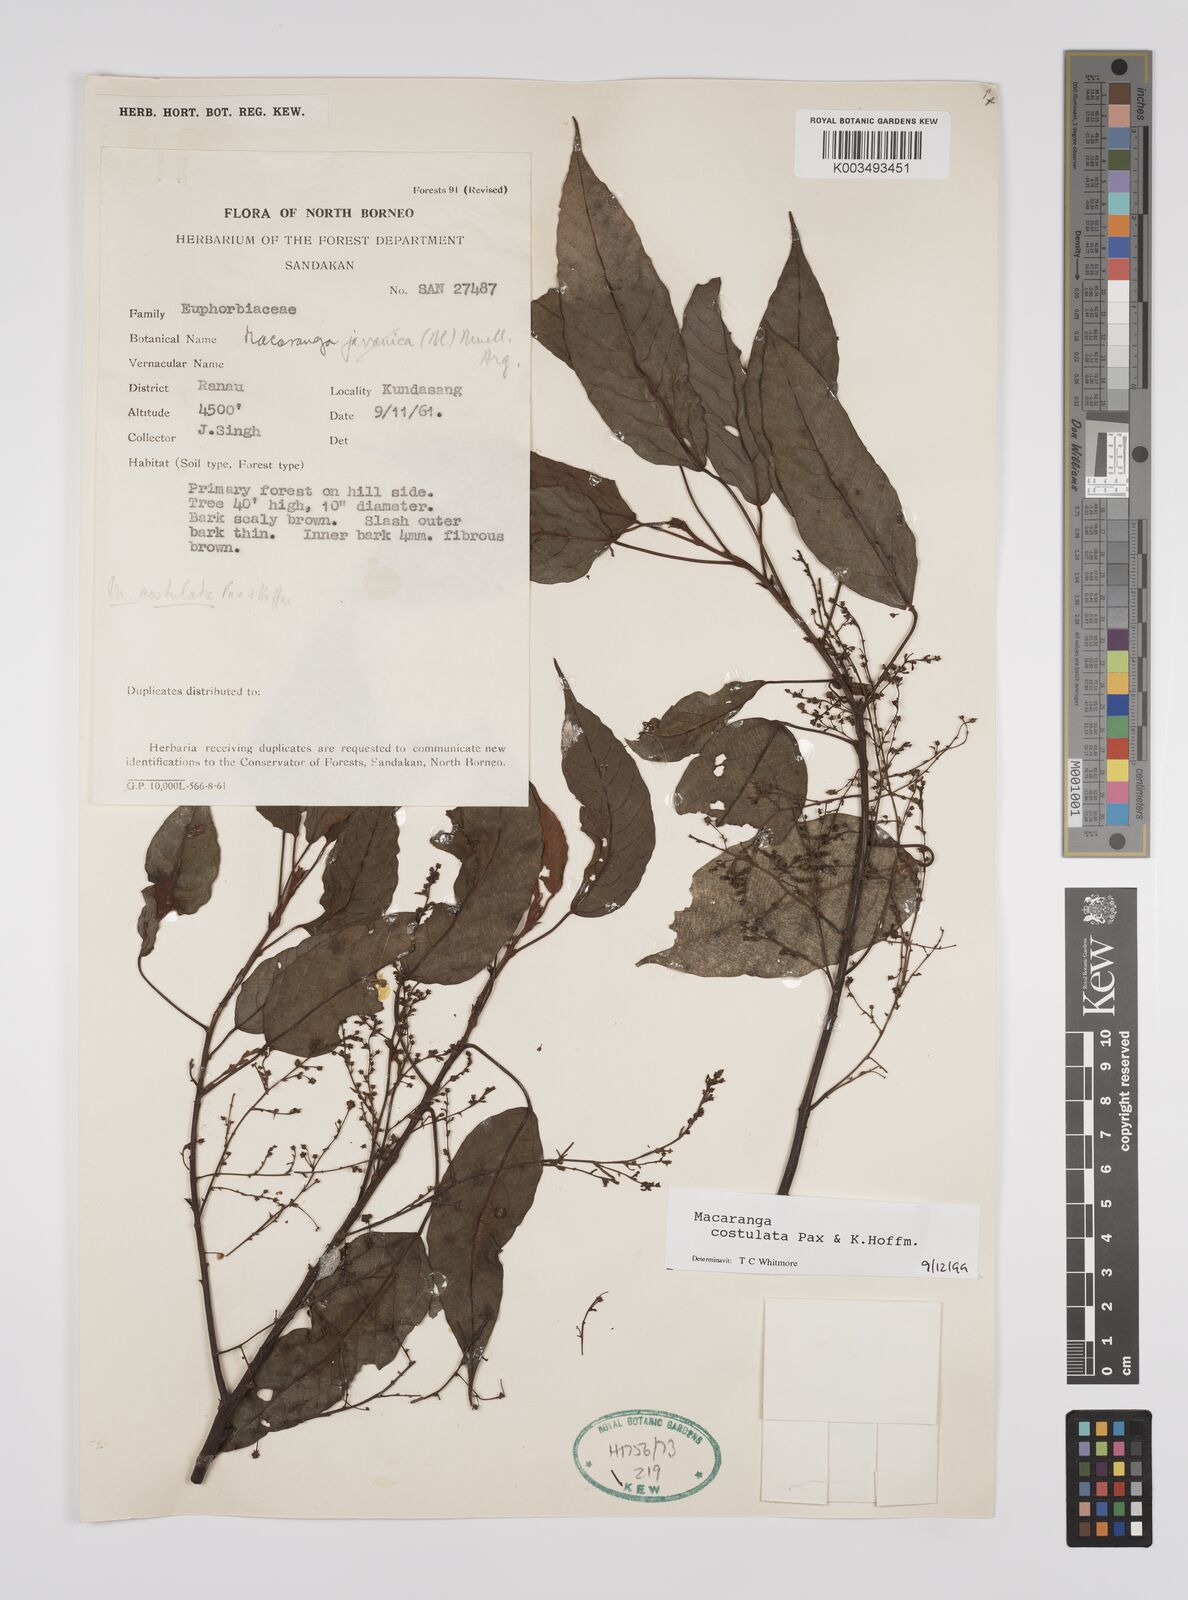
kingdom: Plantae
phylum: Tracheophyta
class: Magnoliopsida
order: Malpighiales
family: Euphorbiaceae
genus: Macaranga
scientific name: Macaranga costulata
